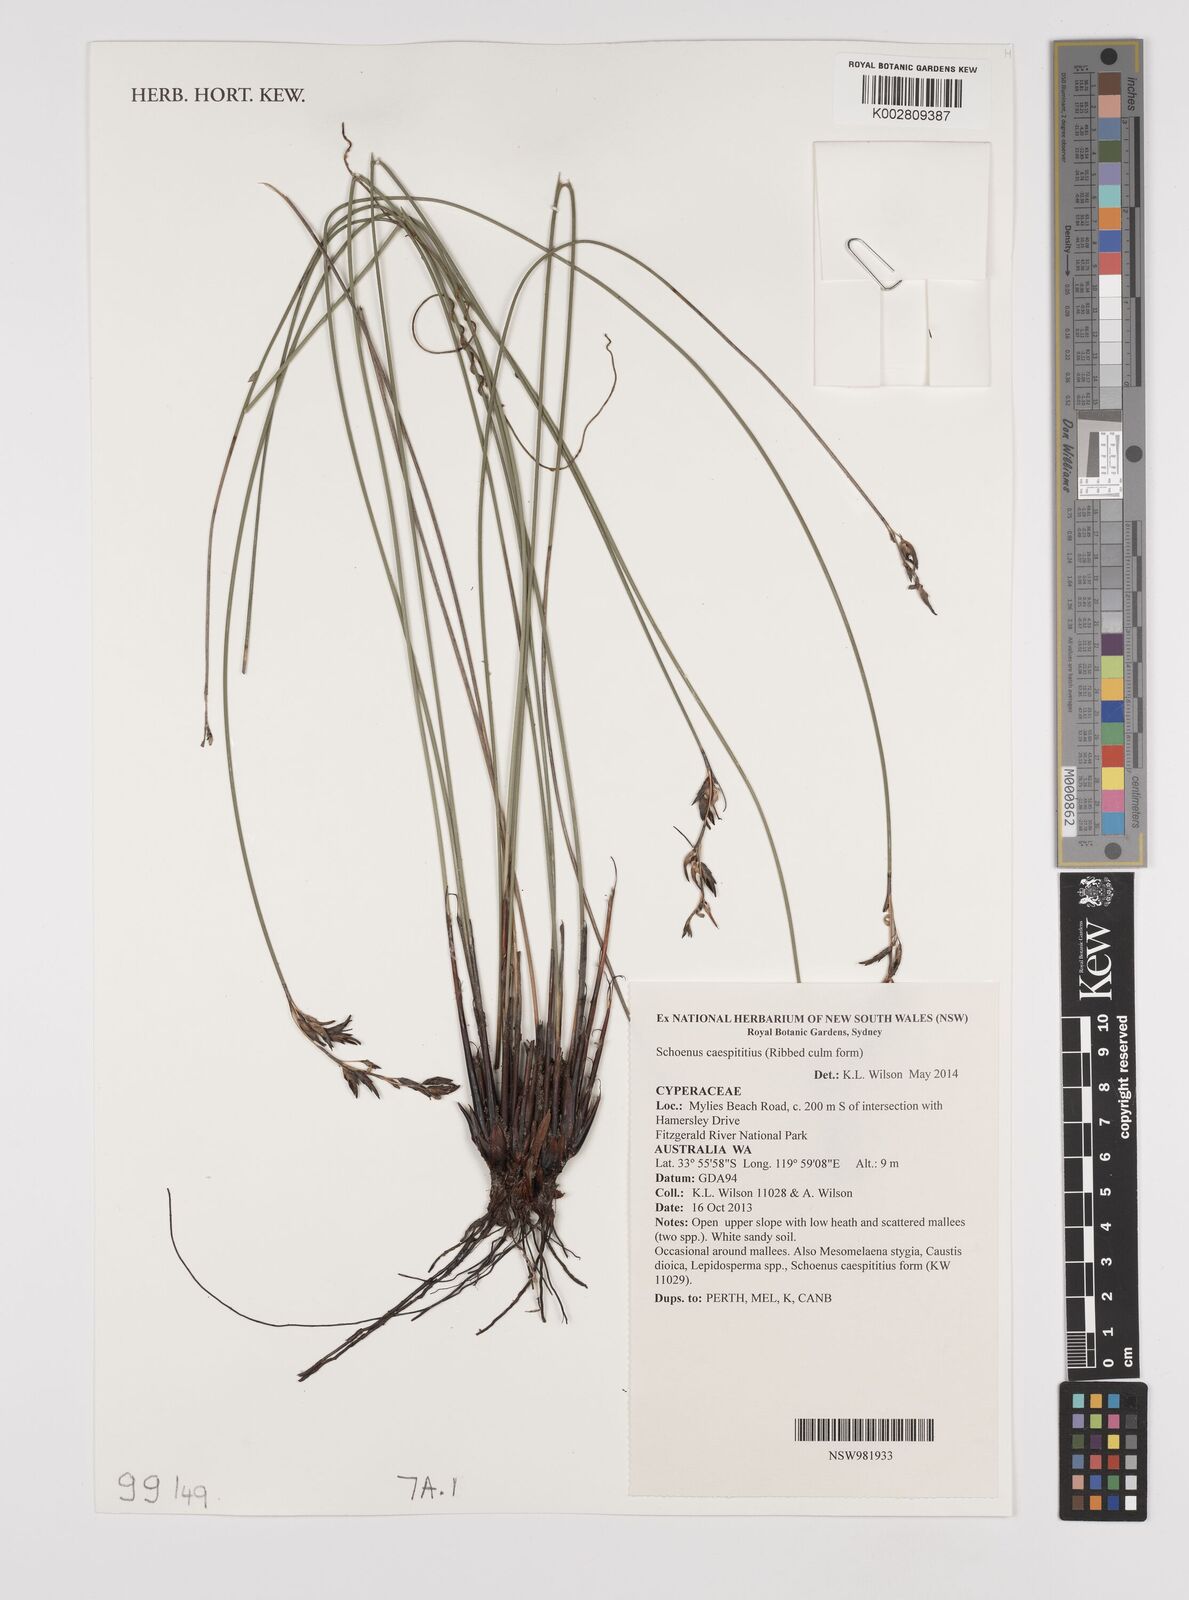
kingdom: Plantae
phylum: Tracheophyta
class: Liliopsida
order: Poales
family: Cyperaceae
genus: Schoenus
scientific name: Schoenus caespititius
